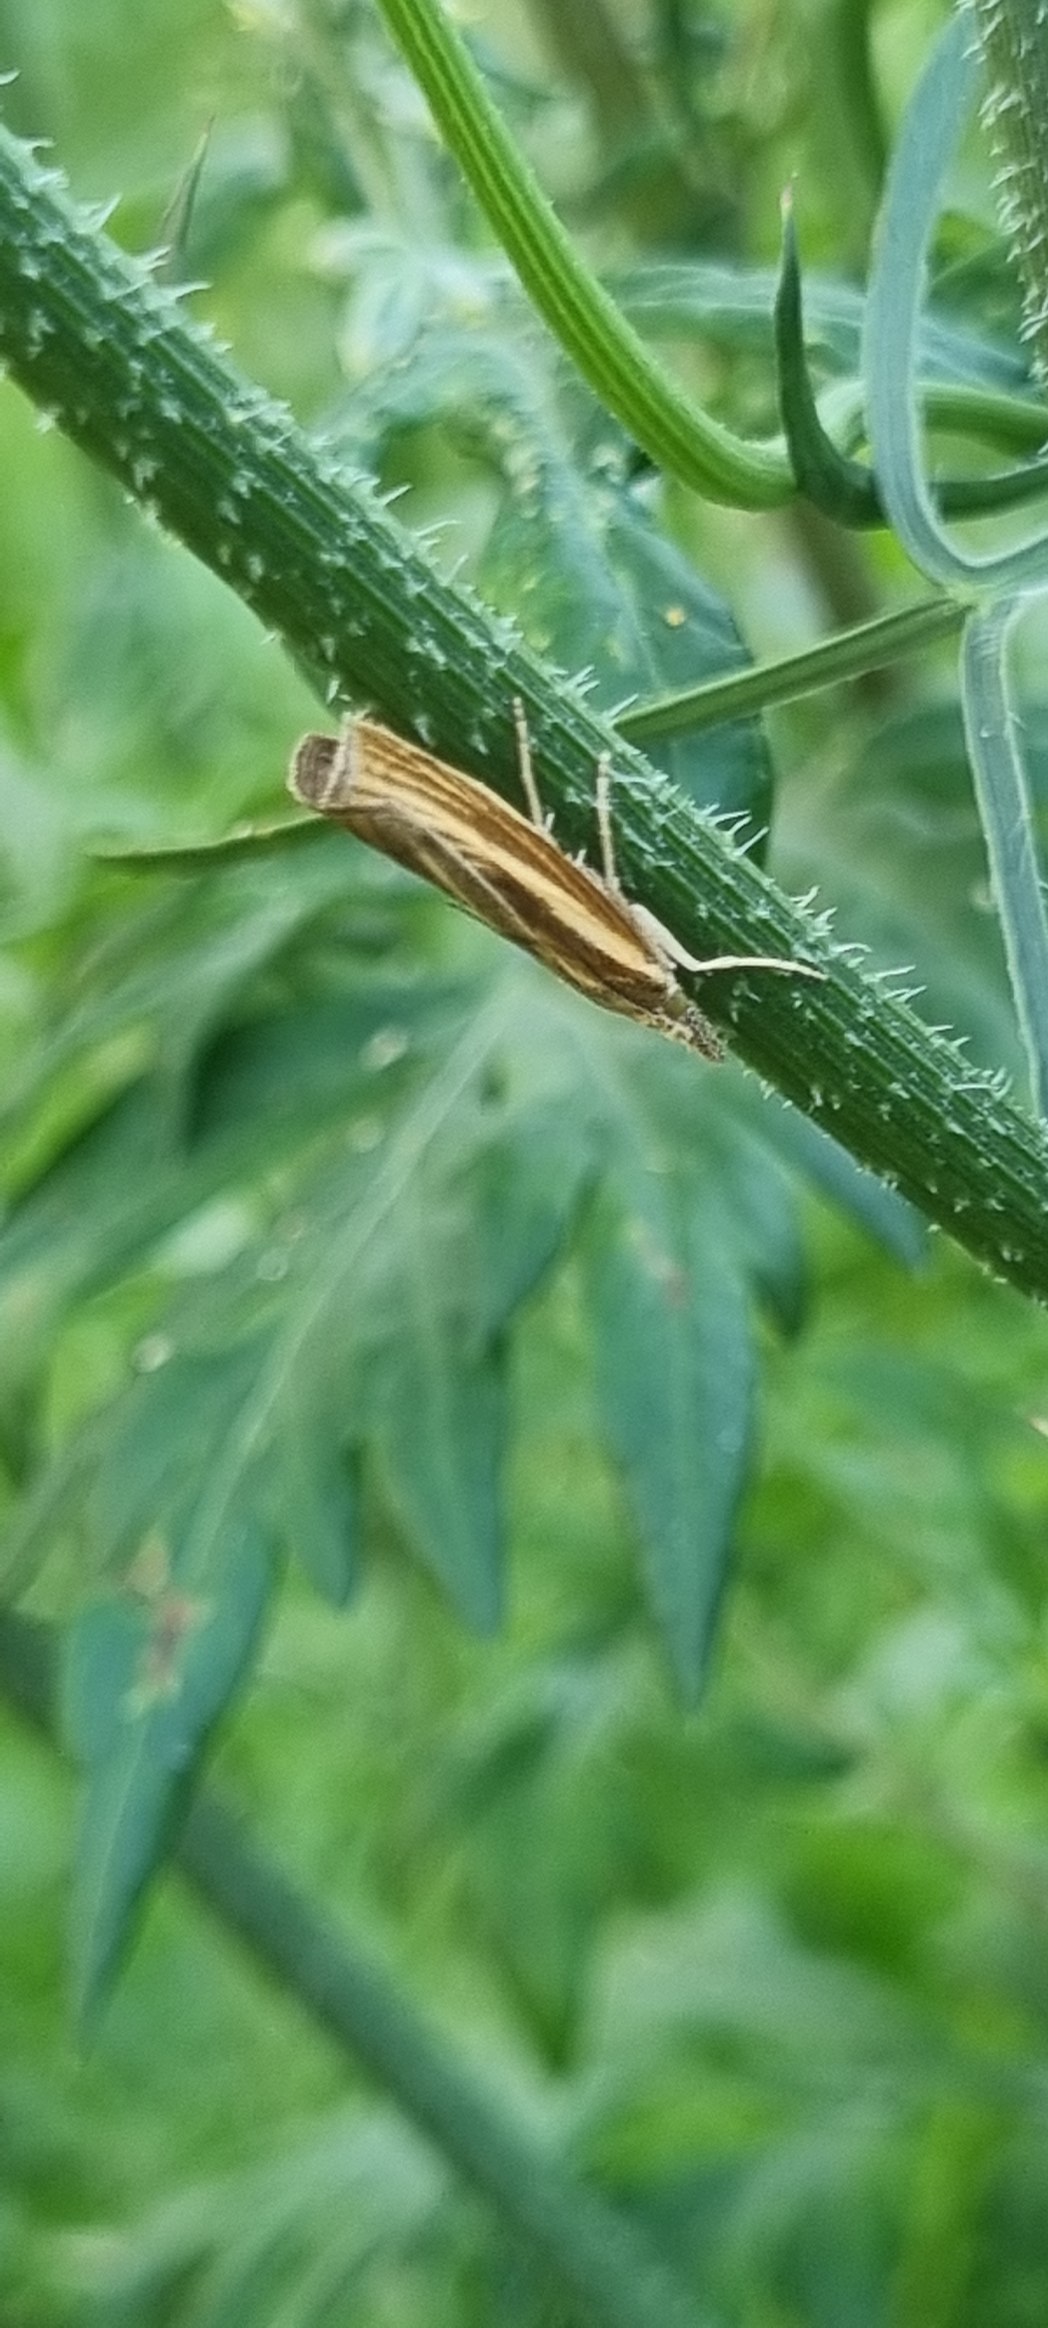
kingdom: Animalia
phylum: Arthropoda
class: Insecta
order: Lepidoptera
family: Crambidae
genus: Agriphila
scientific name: Agriphila tristellus
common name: Okkergult græsmøl
